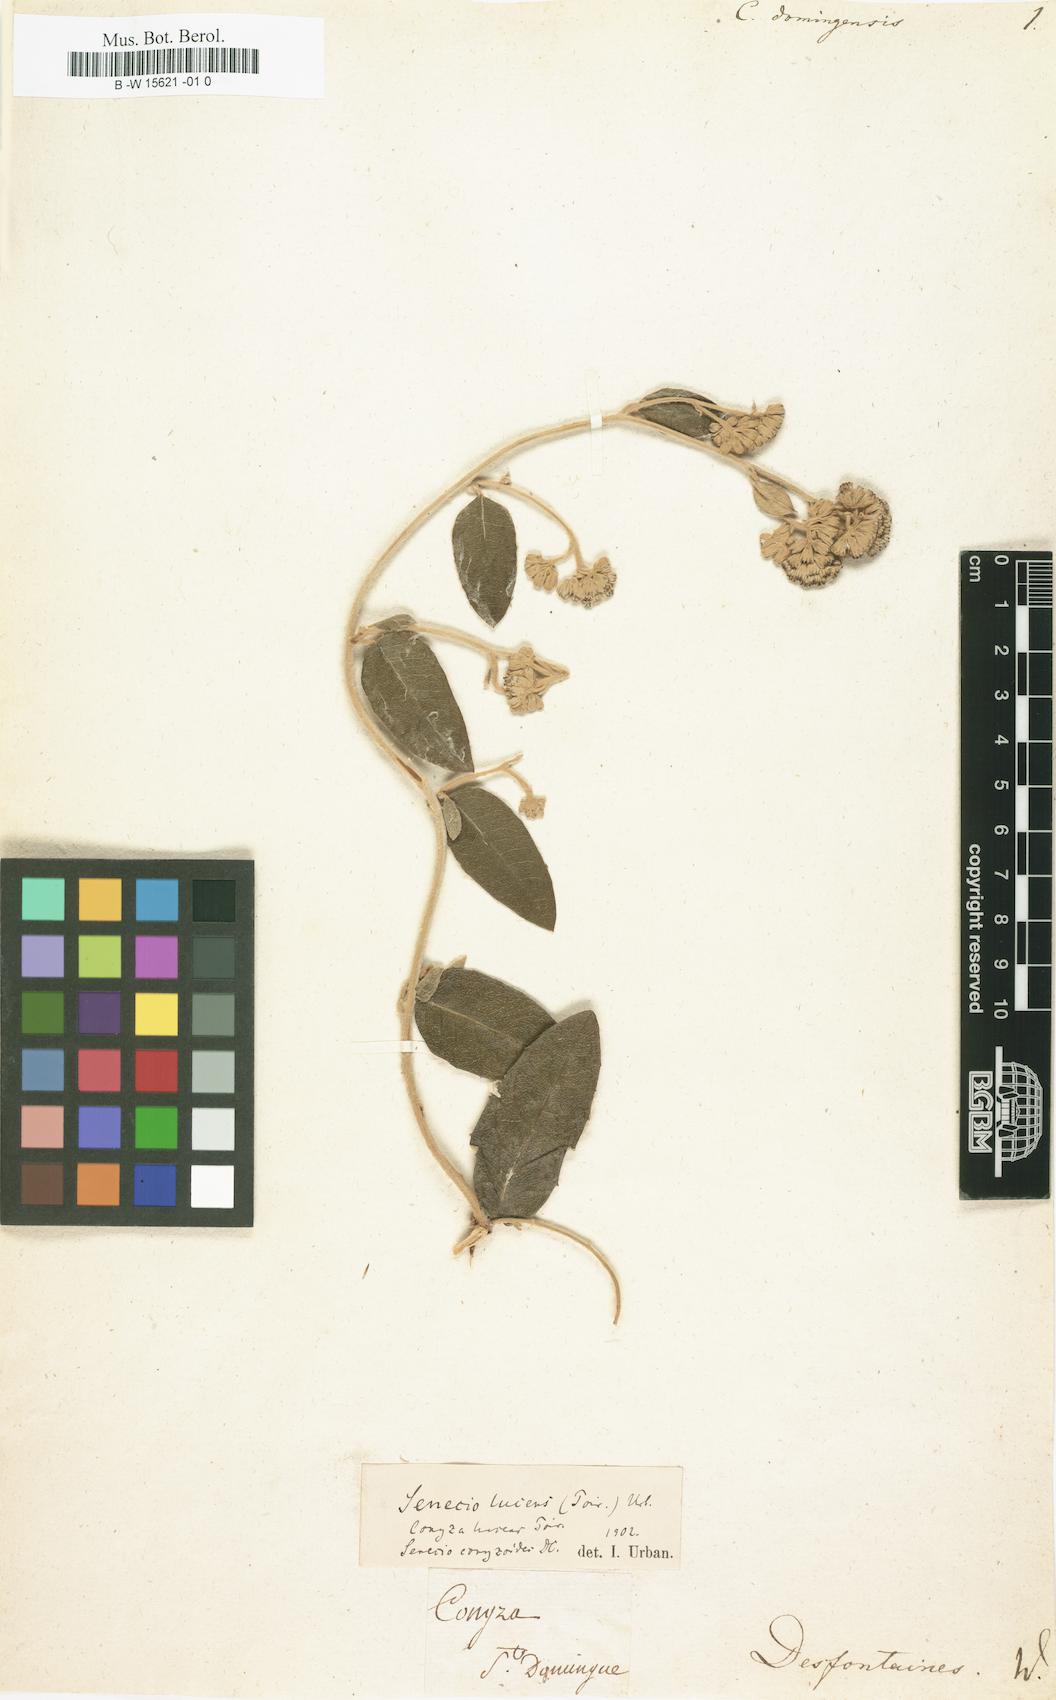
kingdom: Plantae
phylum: Tracheophyta
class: Magnoliopsida
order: Asterales
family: Asteraceae
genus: Nesampelos
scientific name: Nesampelos lucens
